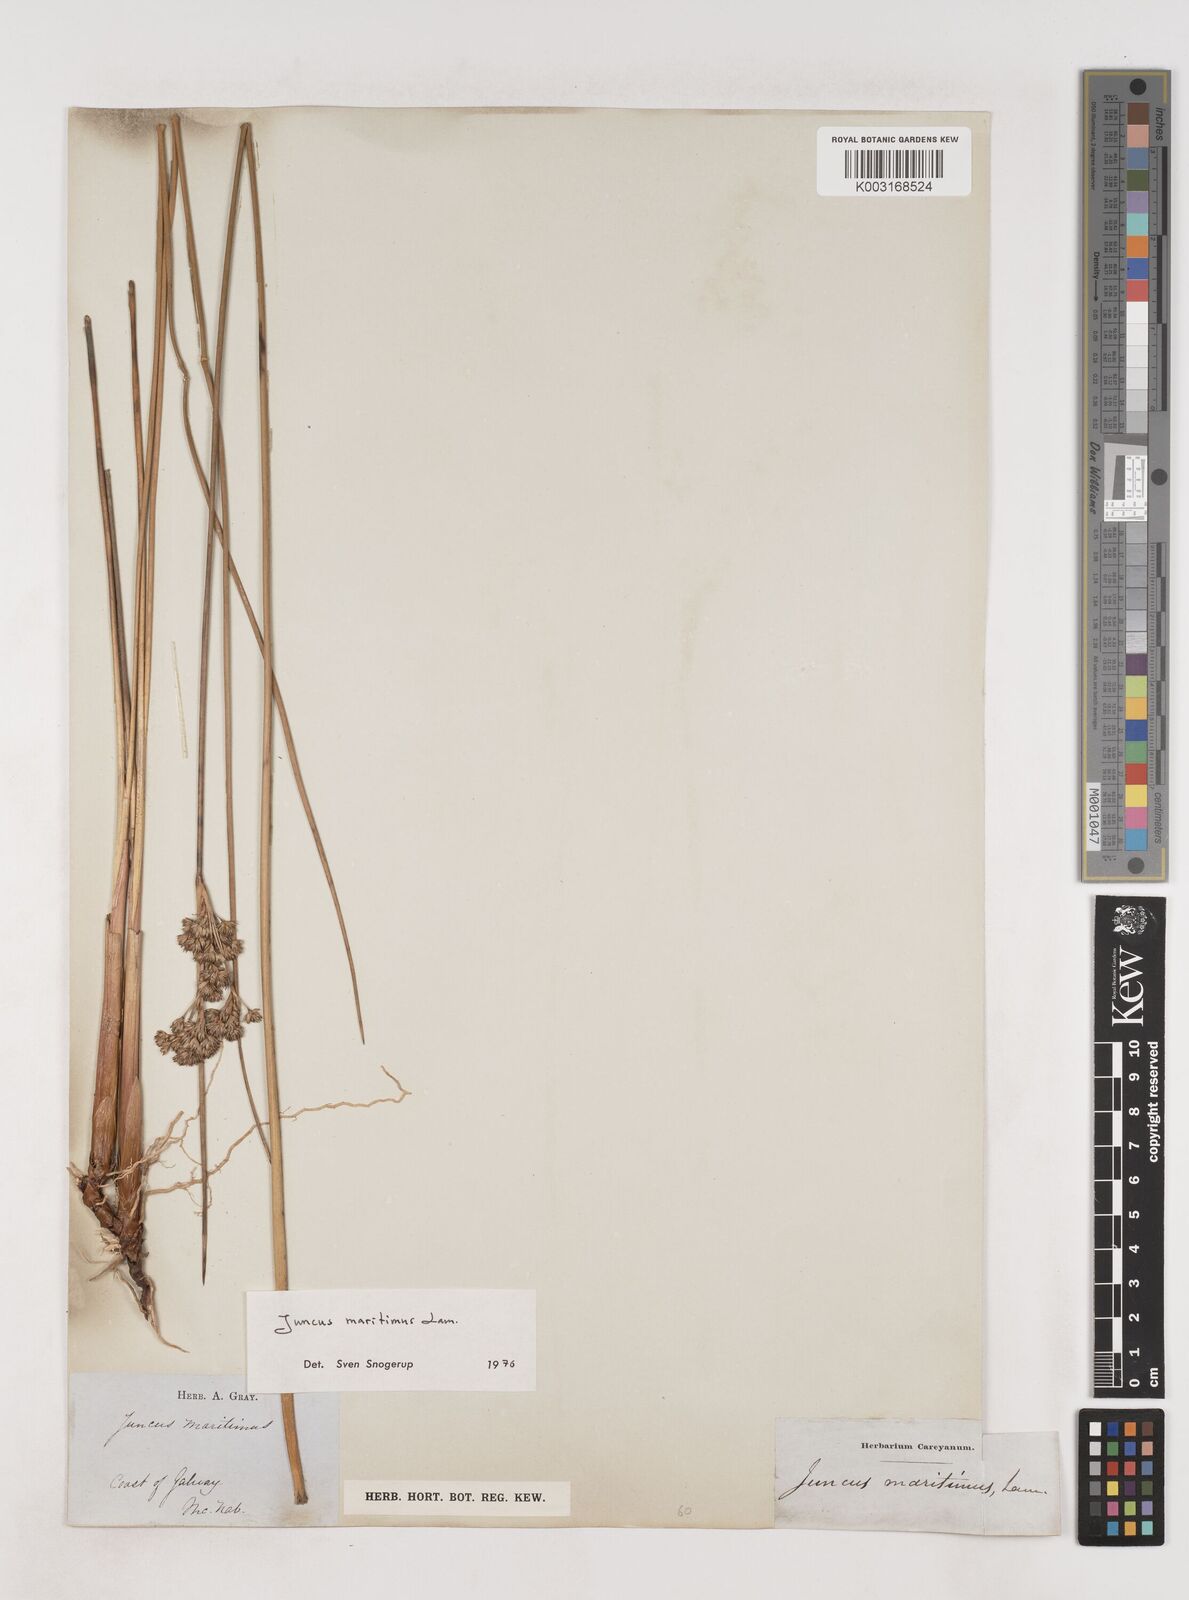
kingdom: Plantae
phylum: Tracheophyta
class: Liliopsida
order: Poales
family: Juncaceae
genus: Juncus
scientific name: Juncus maritimus
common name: Sea rush
